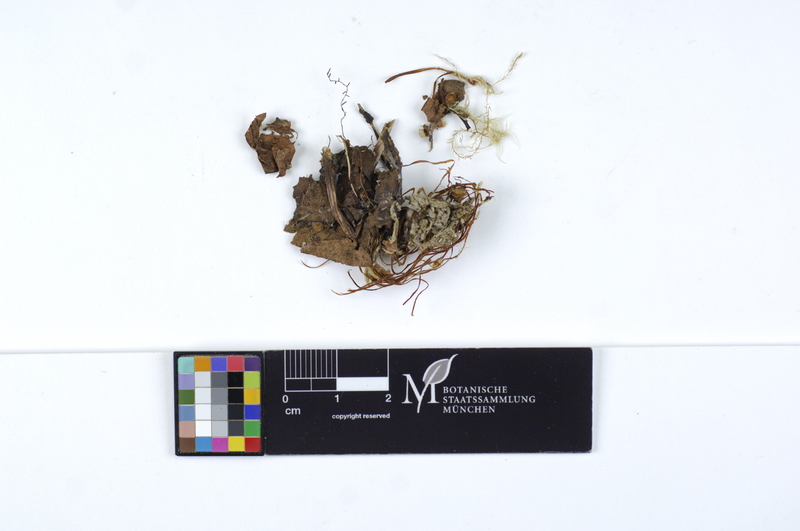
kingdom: Fungi
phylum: Basidiomycota
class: Agaricomycetes
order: Agaricales
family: Typhulaceae
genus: Typhula
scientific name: Typhula juncea
